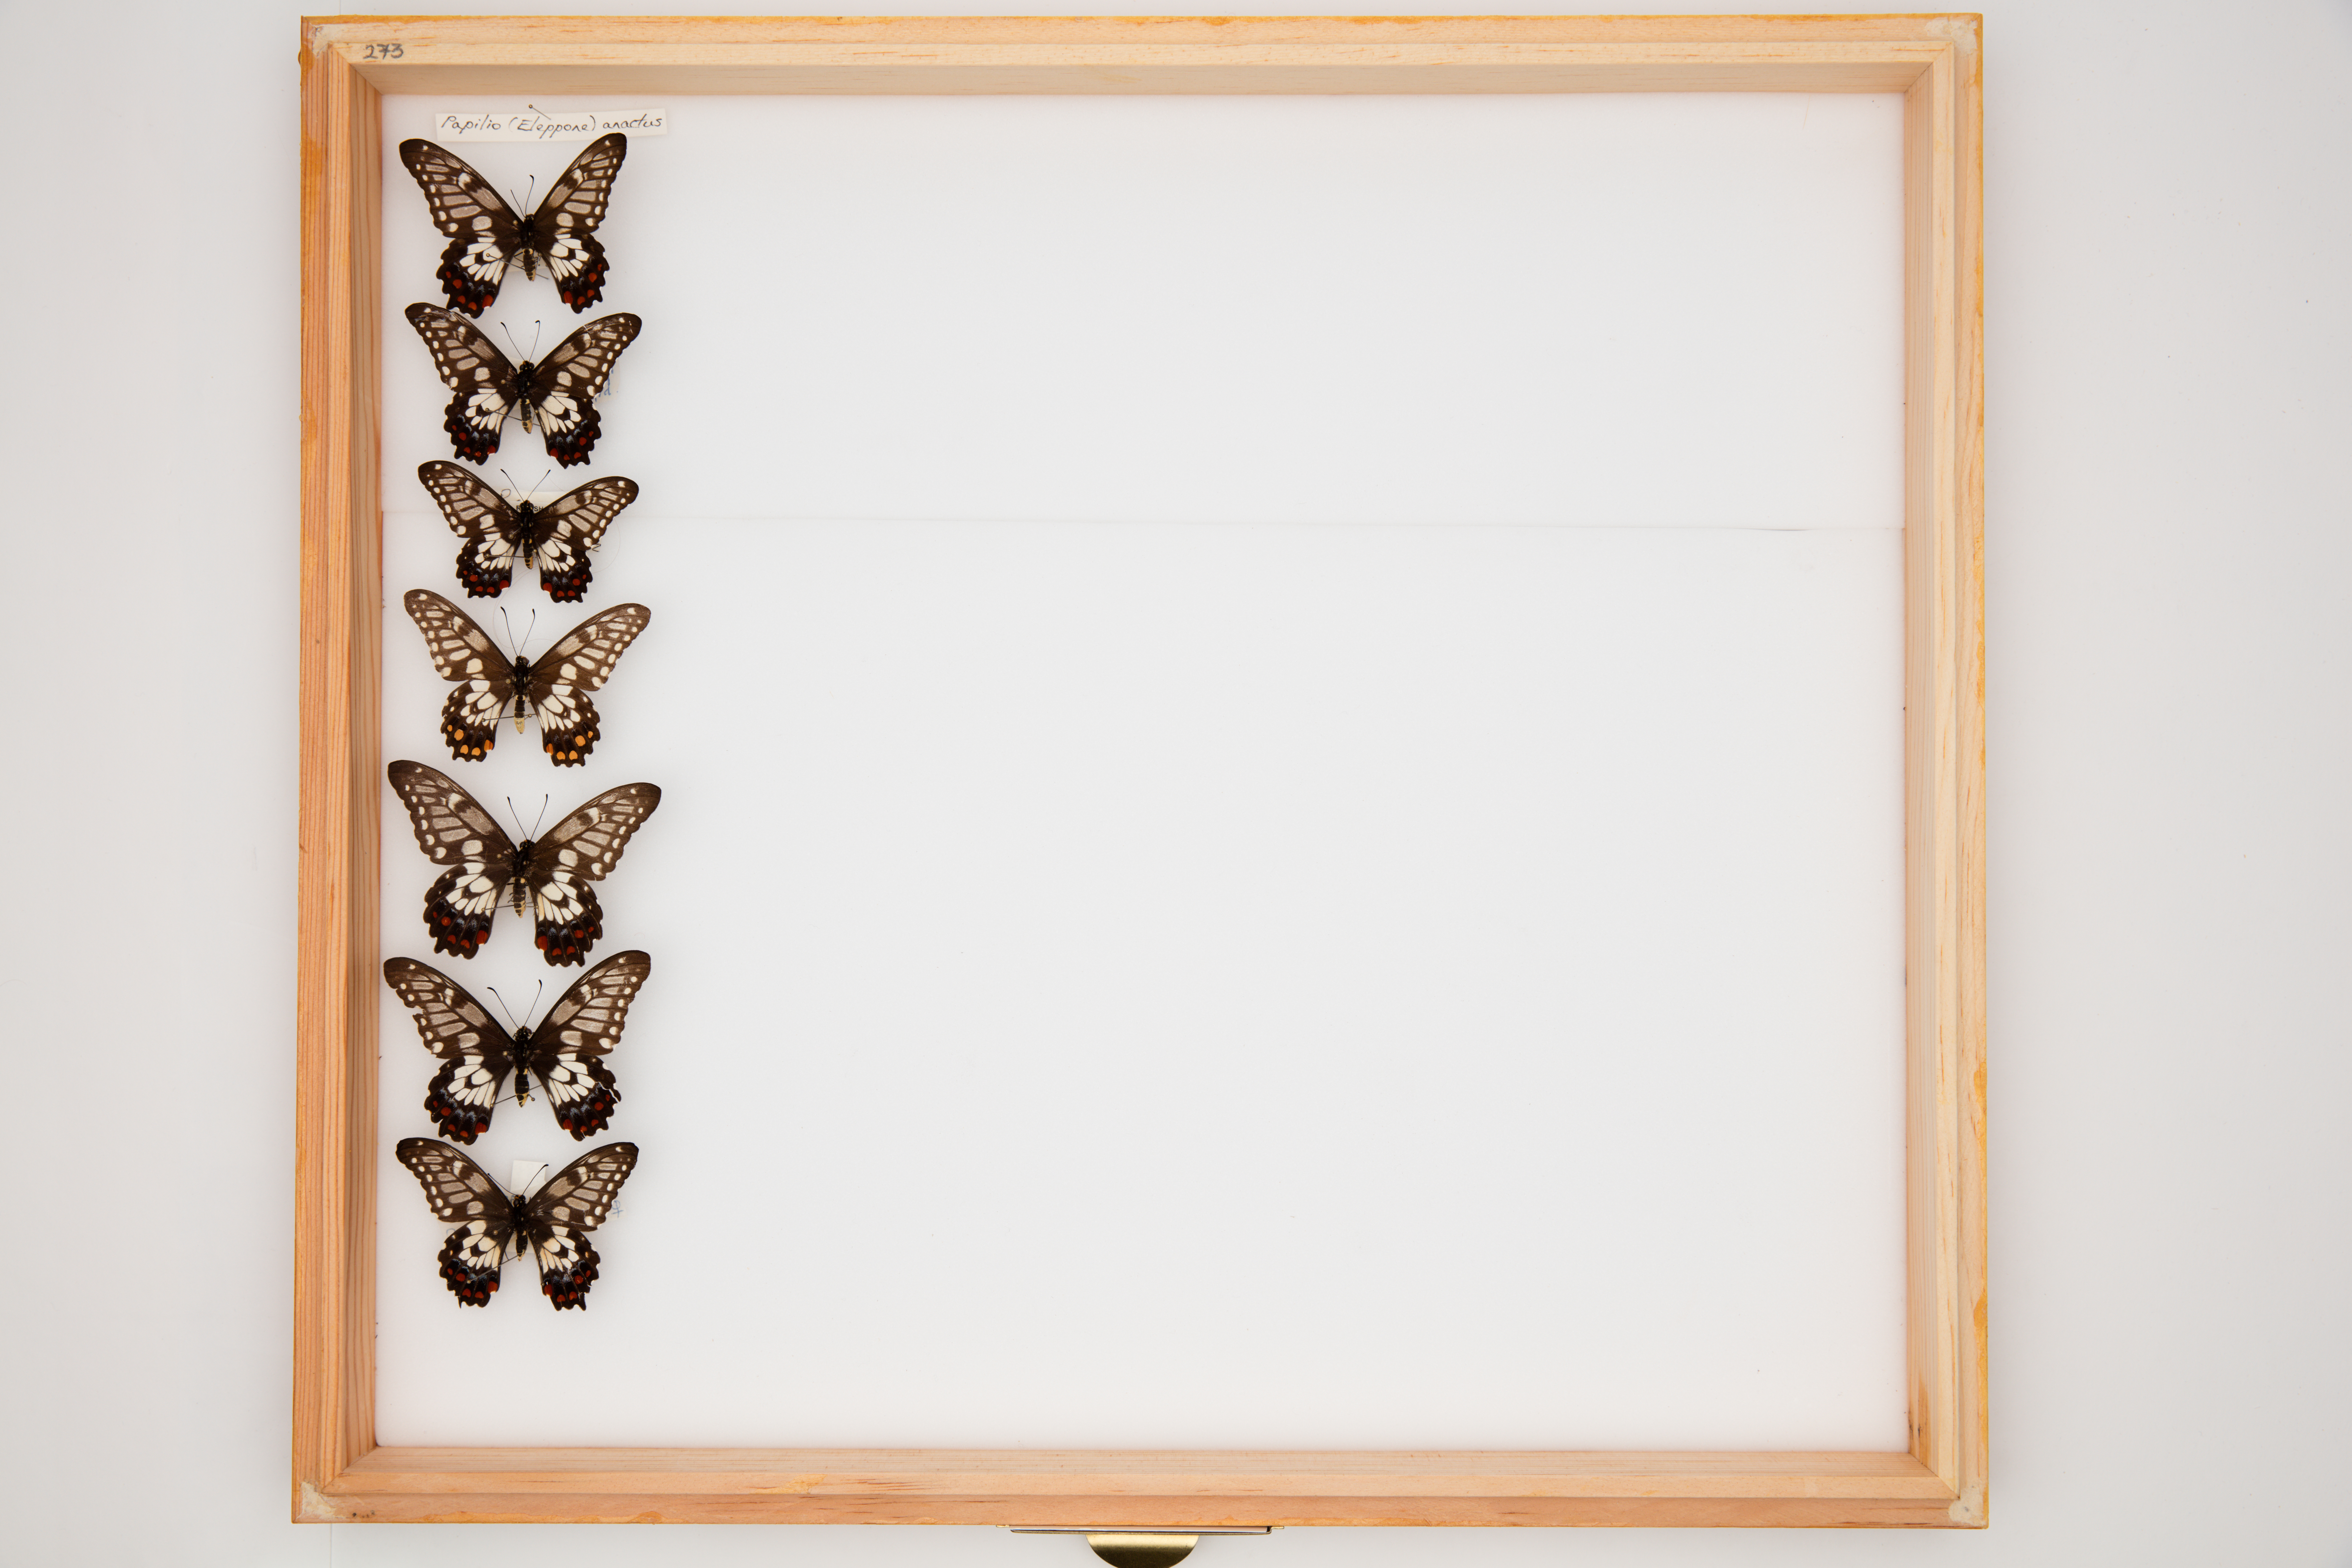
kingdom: Animalia
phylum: Arthropoda
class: Insecta
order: Lepidoptera
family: Papilionidae
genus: Papilio
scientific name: Papilio anactus
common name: Dingy swallowtail
